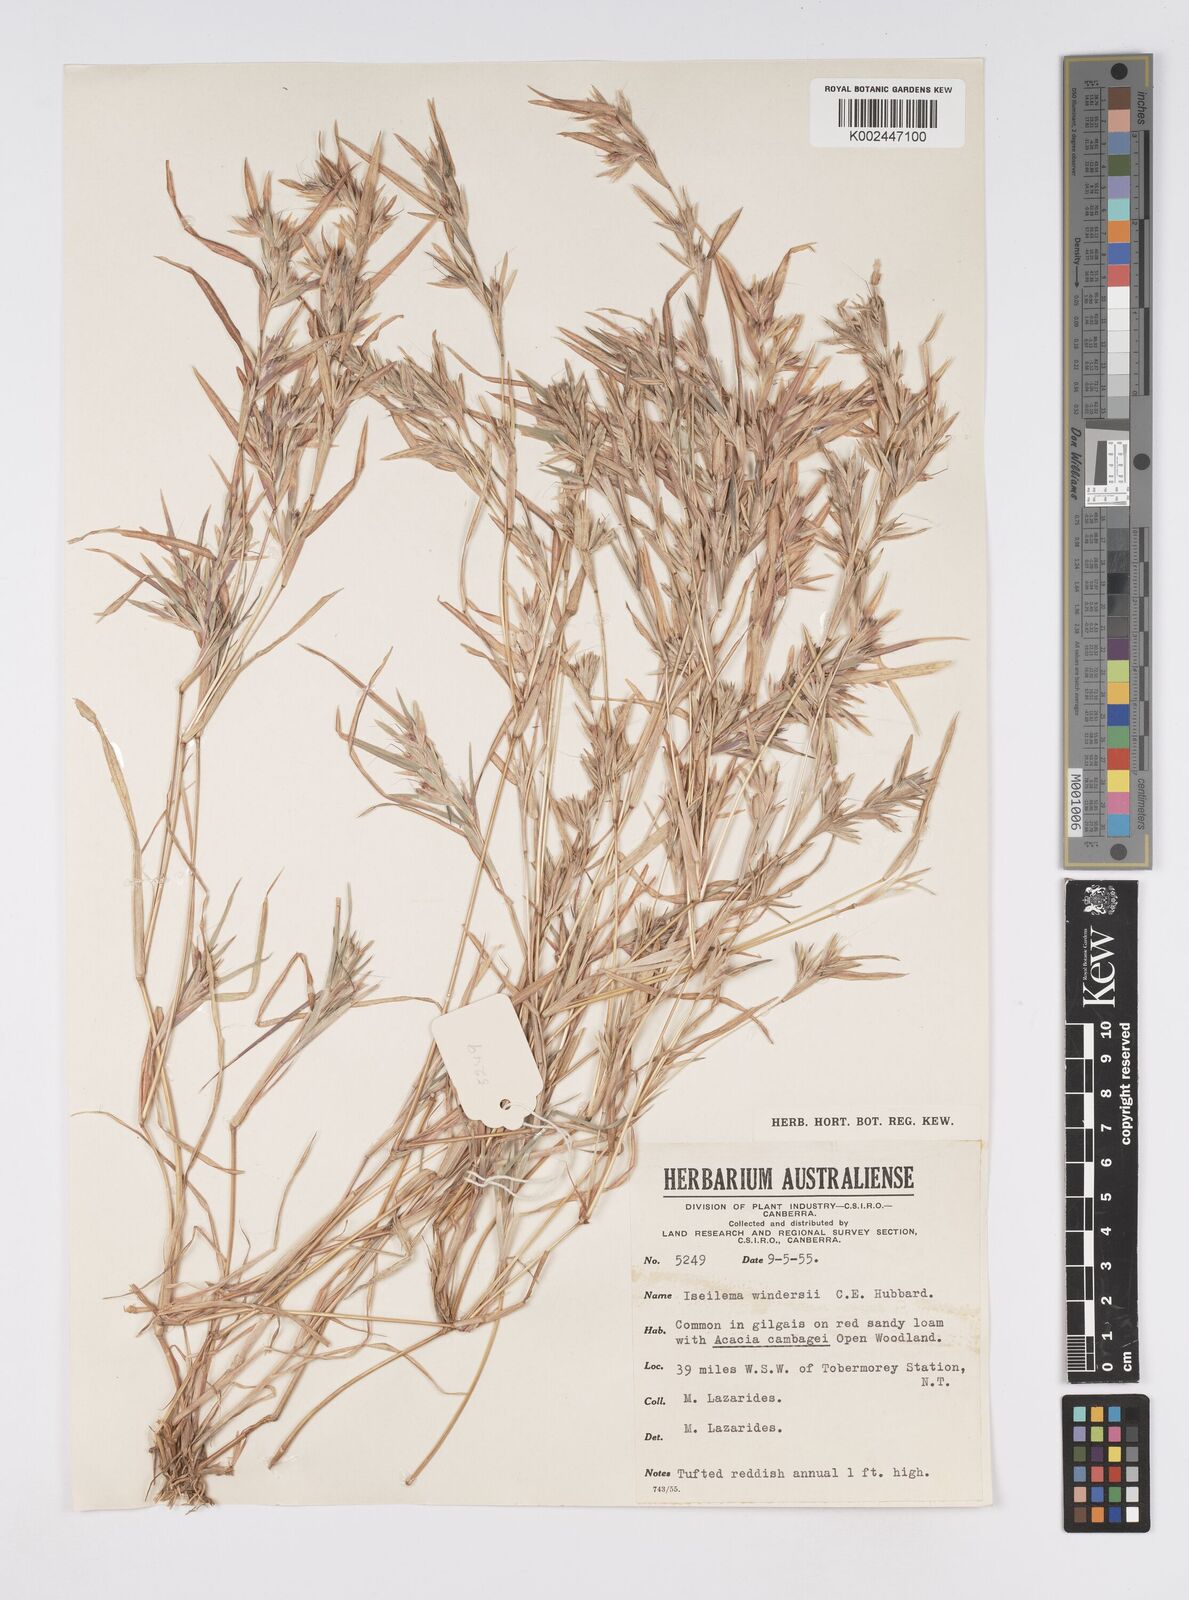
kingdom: Plantae
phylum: Tracheophyta
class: Liliopsida
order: Poales
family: Poaceae
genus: Iseilema
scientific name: Iseilema windersii
